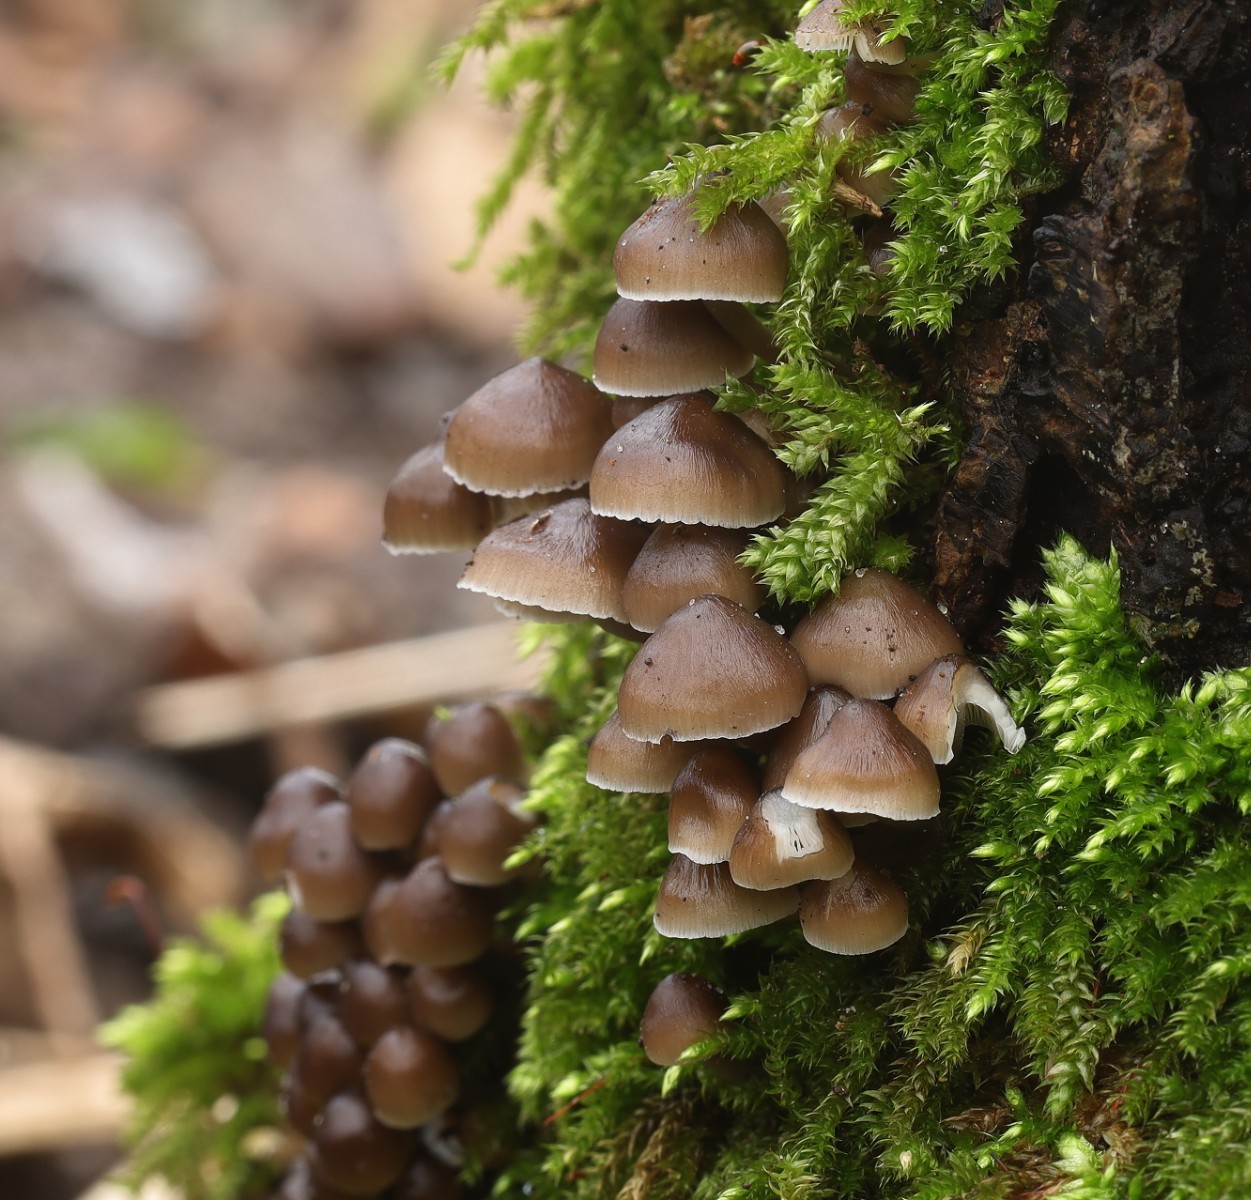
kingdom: Fungi
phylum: Basidiomycota
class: Agaricomycetes
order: Agaricales
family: Mycenaceae
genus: Mycena
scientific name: Mycena tintinnabulum
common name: vinter-huesvamp
